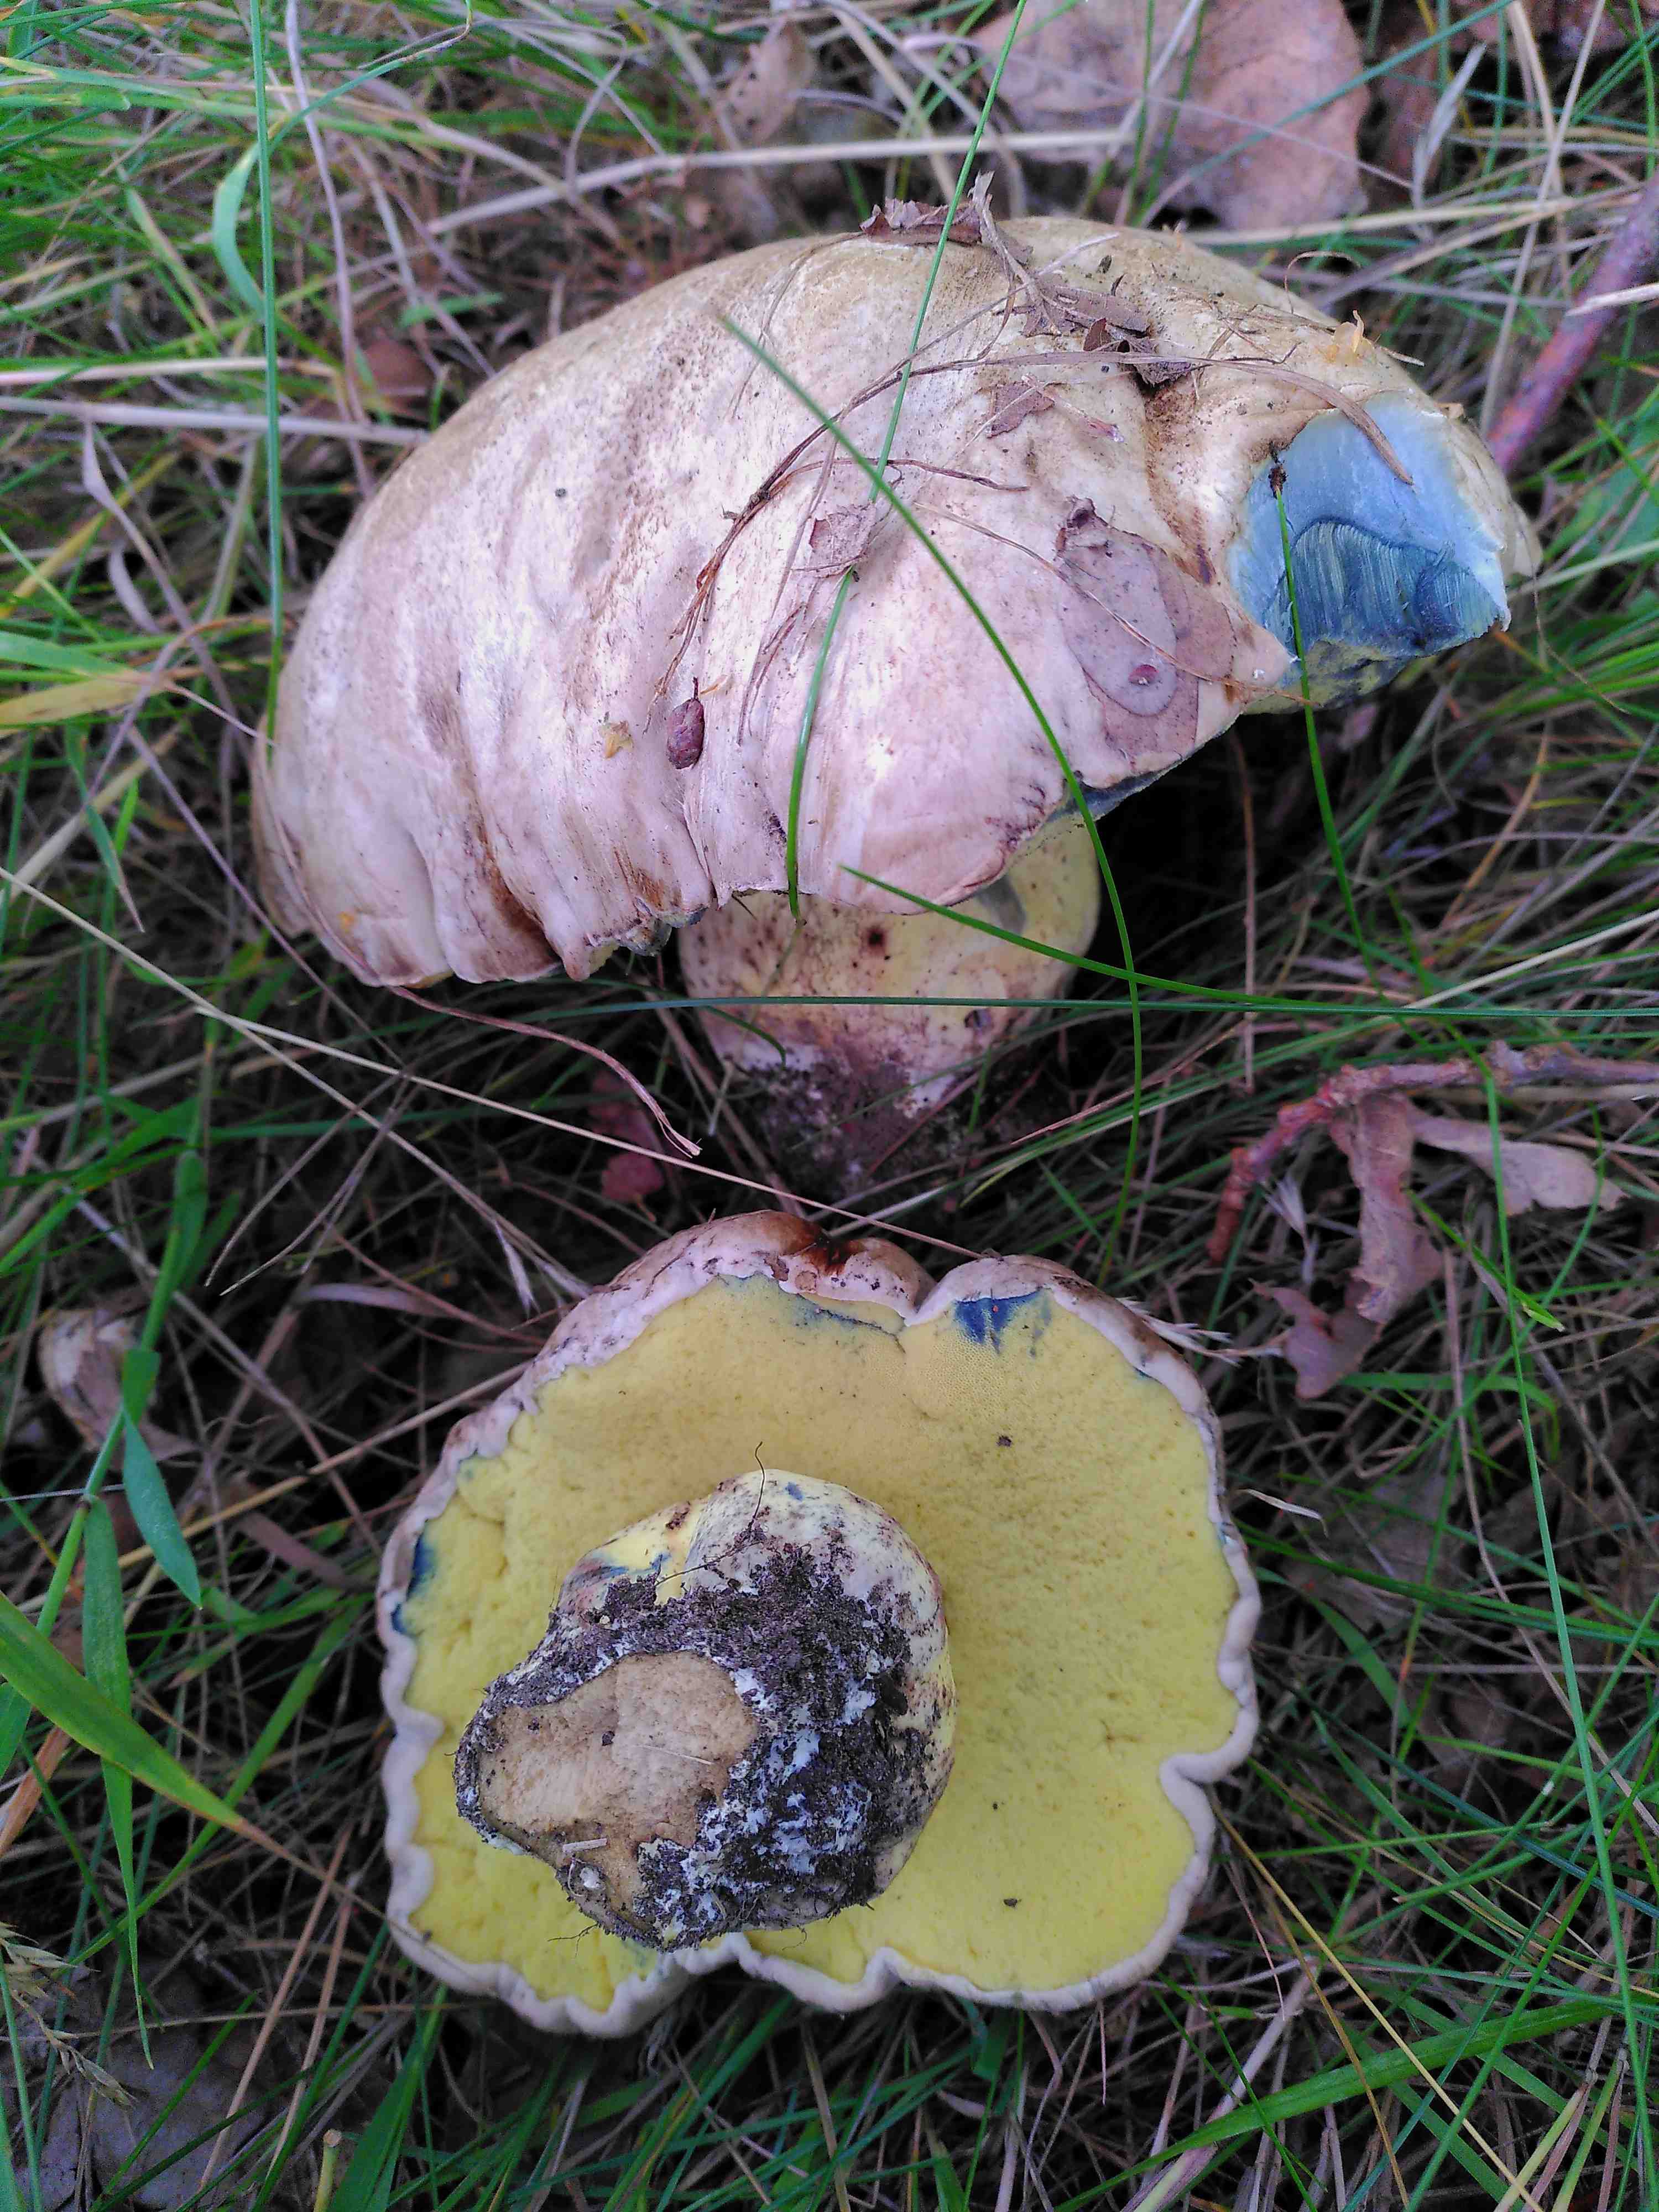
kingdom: Fungi
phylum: Basidiomycota
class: Agaricomycetes
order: Boletales
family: Boletaceae
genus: Caloboletus
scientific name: Caloboletus radicans
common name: rod-rørhat
